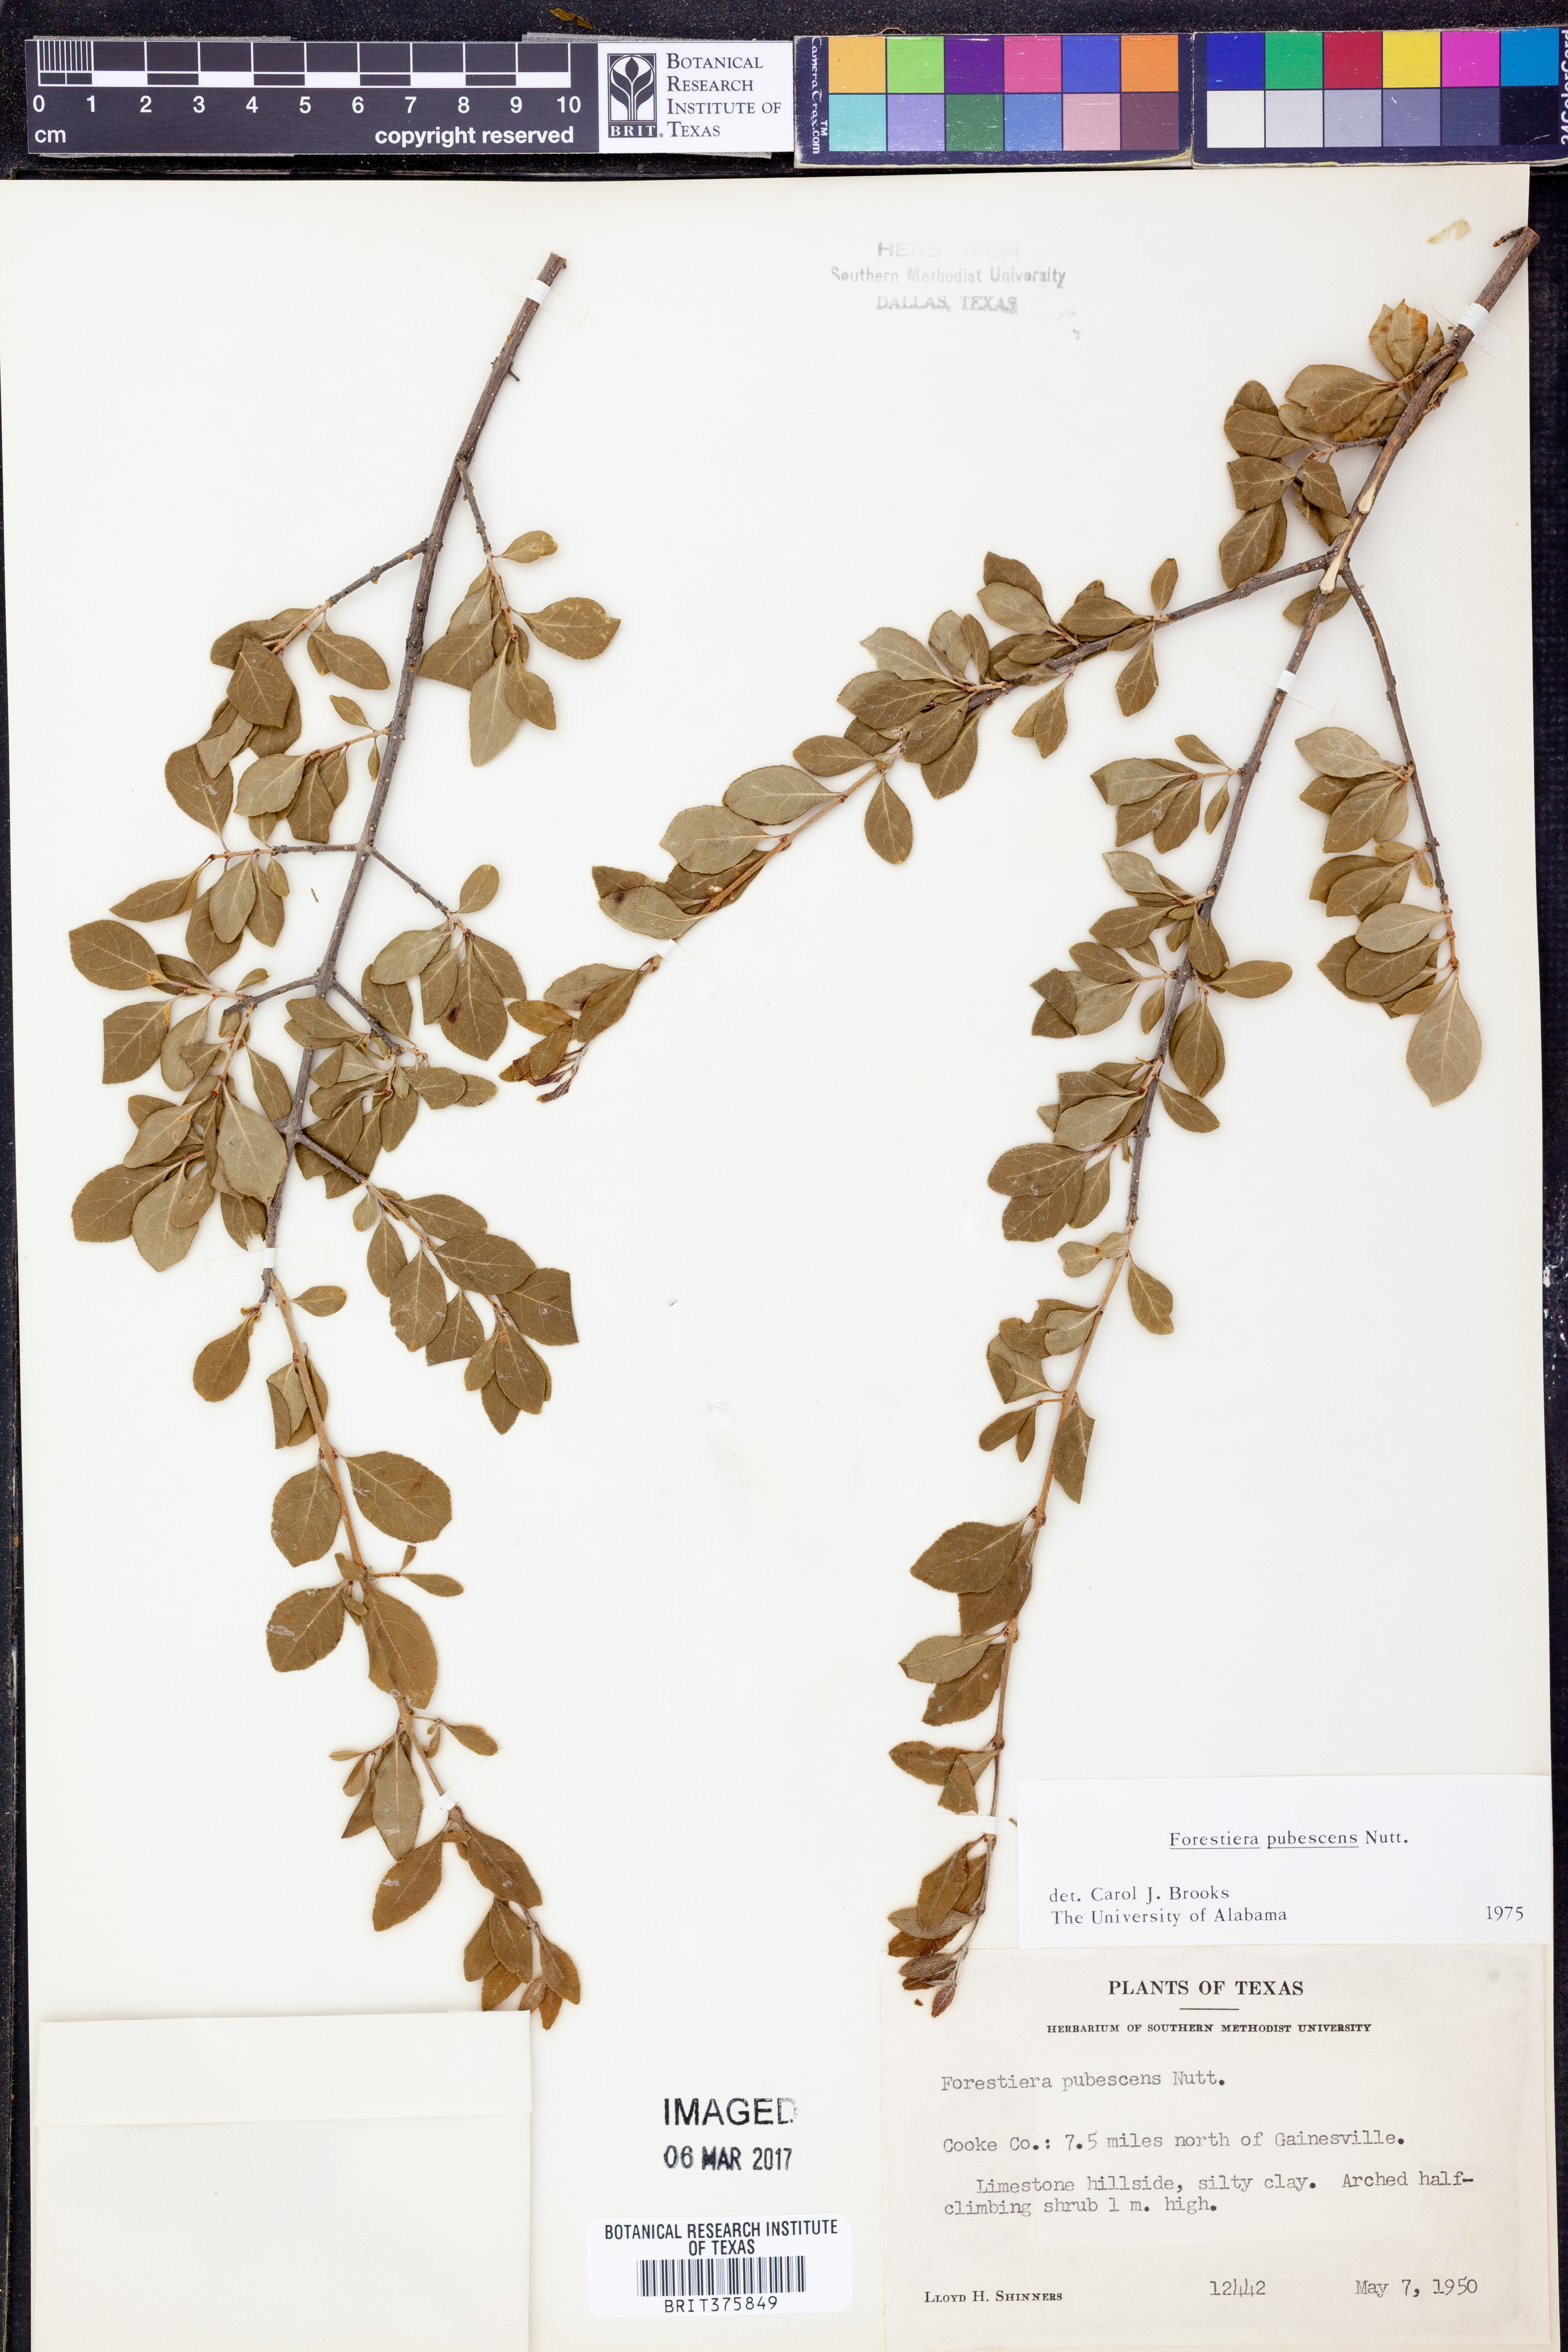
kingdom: Plantae
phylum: Tracheophyta
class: Magnoliopsida
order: Lamiales
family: Oleaceae
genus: Forestiera
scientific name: Forestiera pubescens
